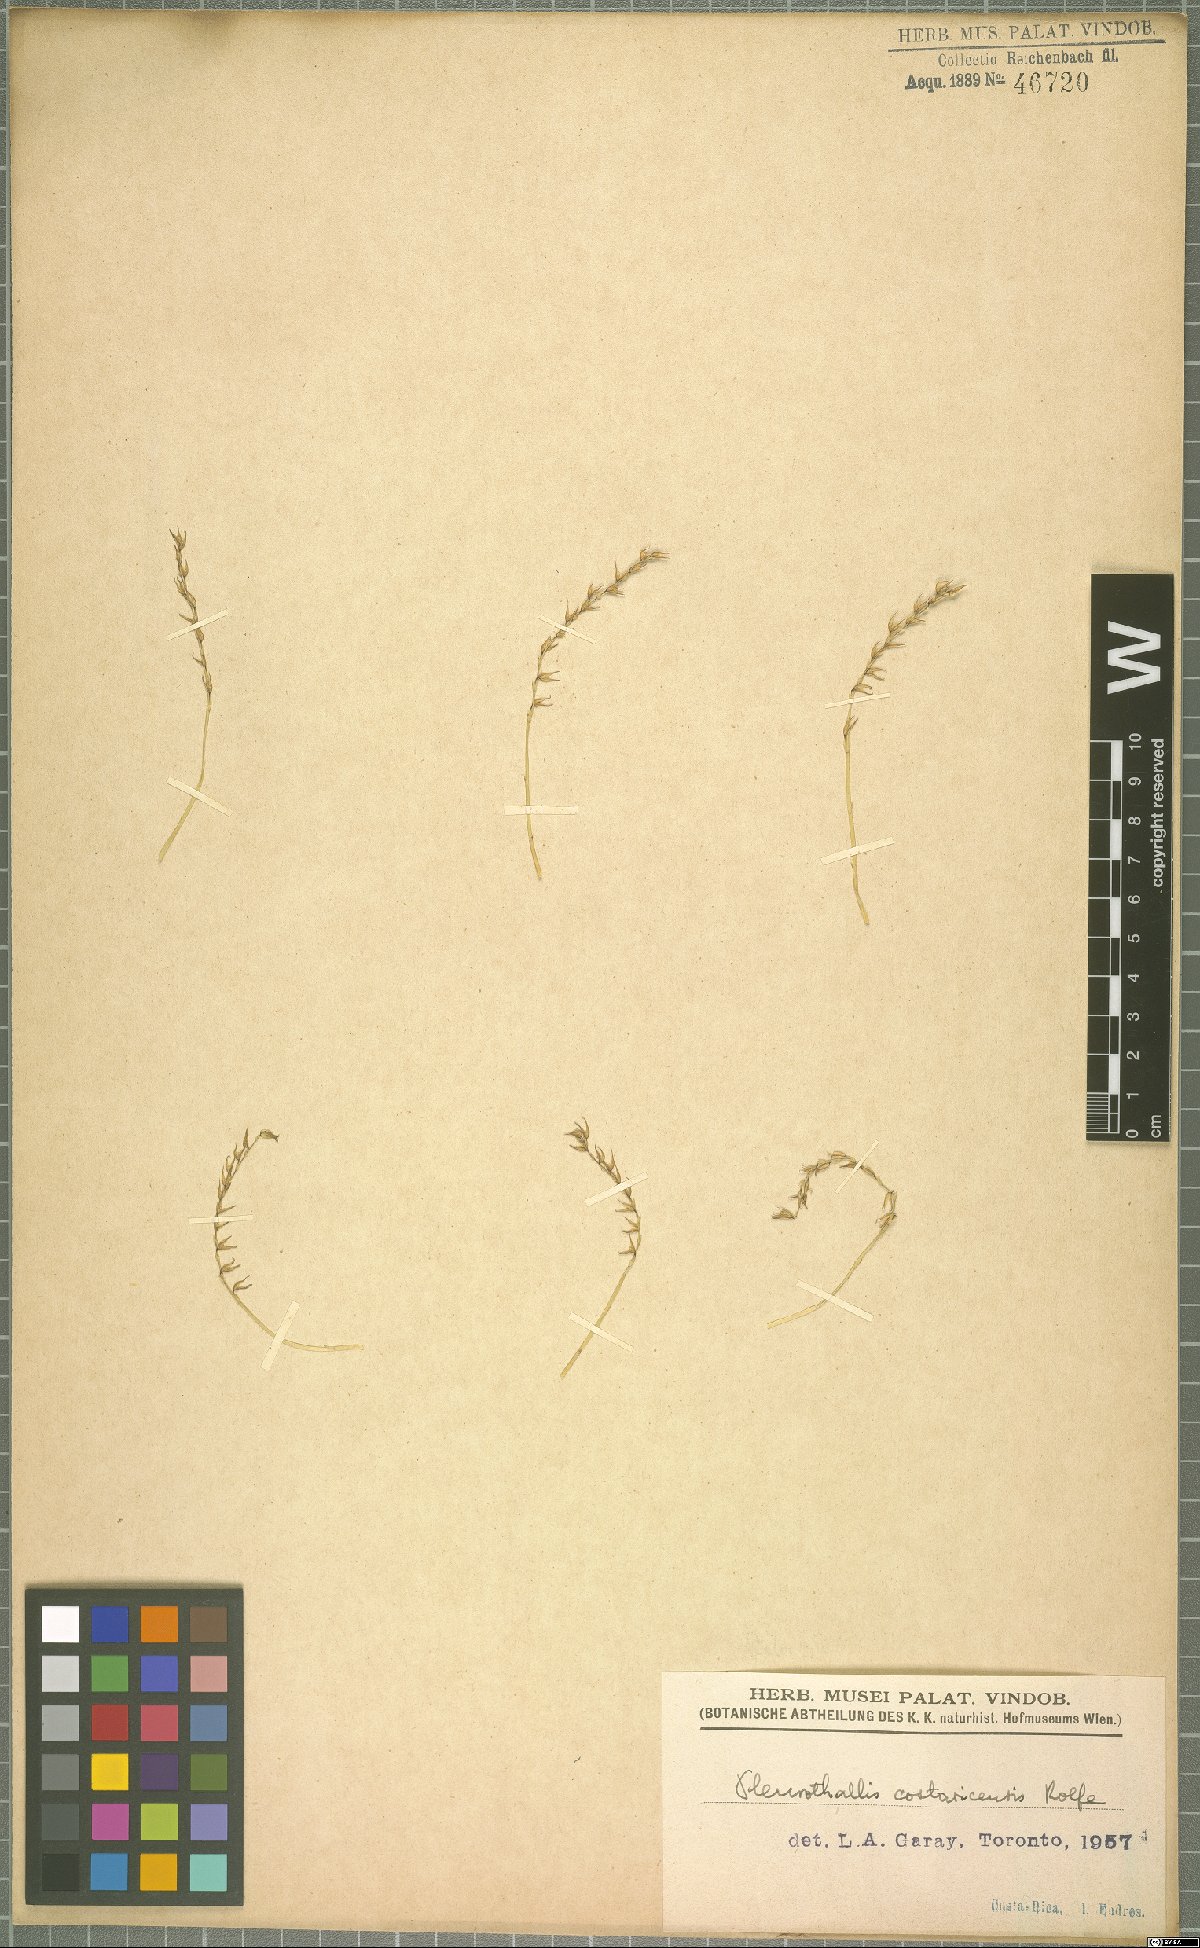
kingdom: Plantae
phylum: Tracheophyta
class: Liliopsida
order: Asparagales
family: Orchidaceae
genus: Specklinia
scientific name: Specklinia costaricensis
